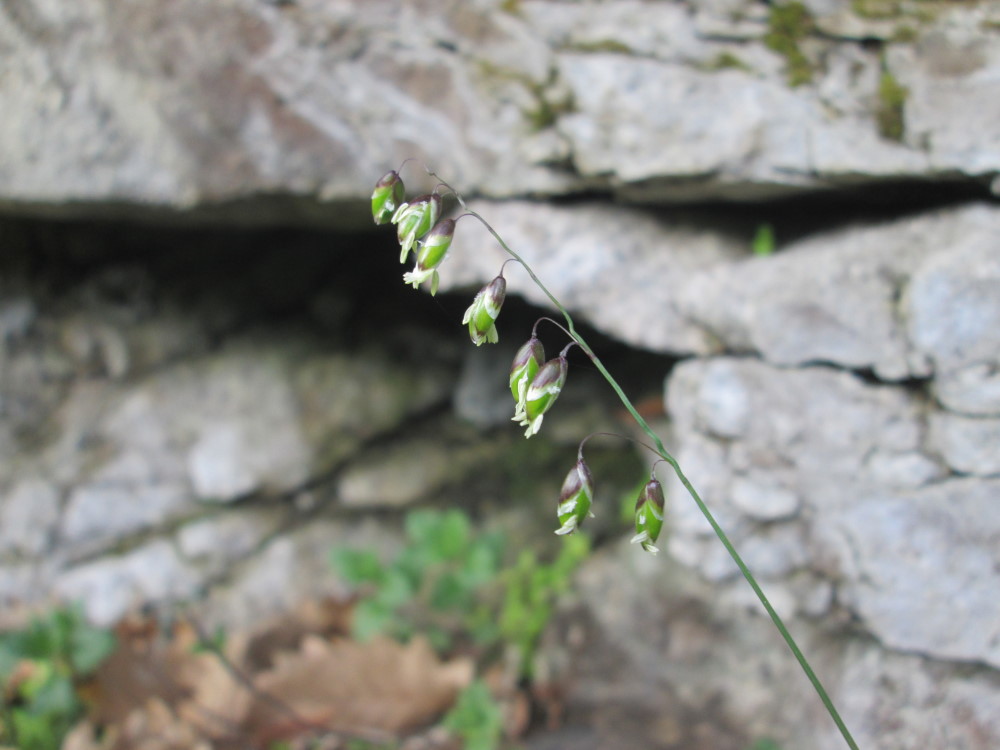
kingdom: Plantae
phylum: Tracheophyta
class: Liliopsida
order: Poales
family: Poaceae
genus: Melica
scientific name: Melica nutans
